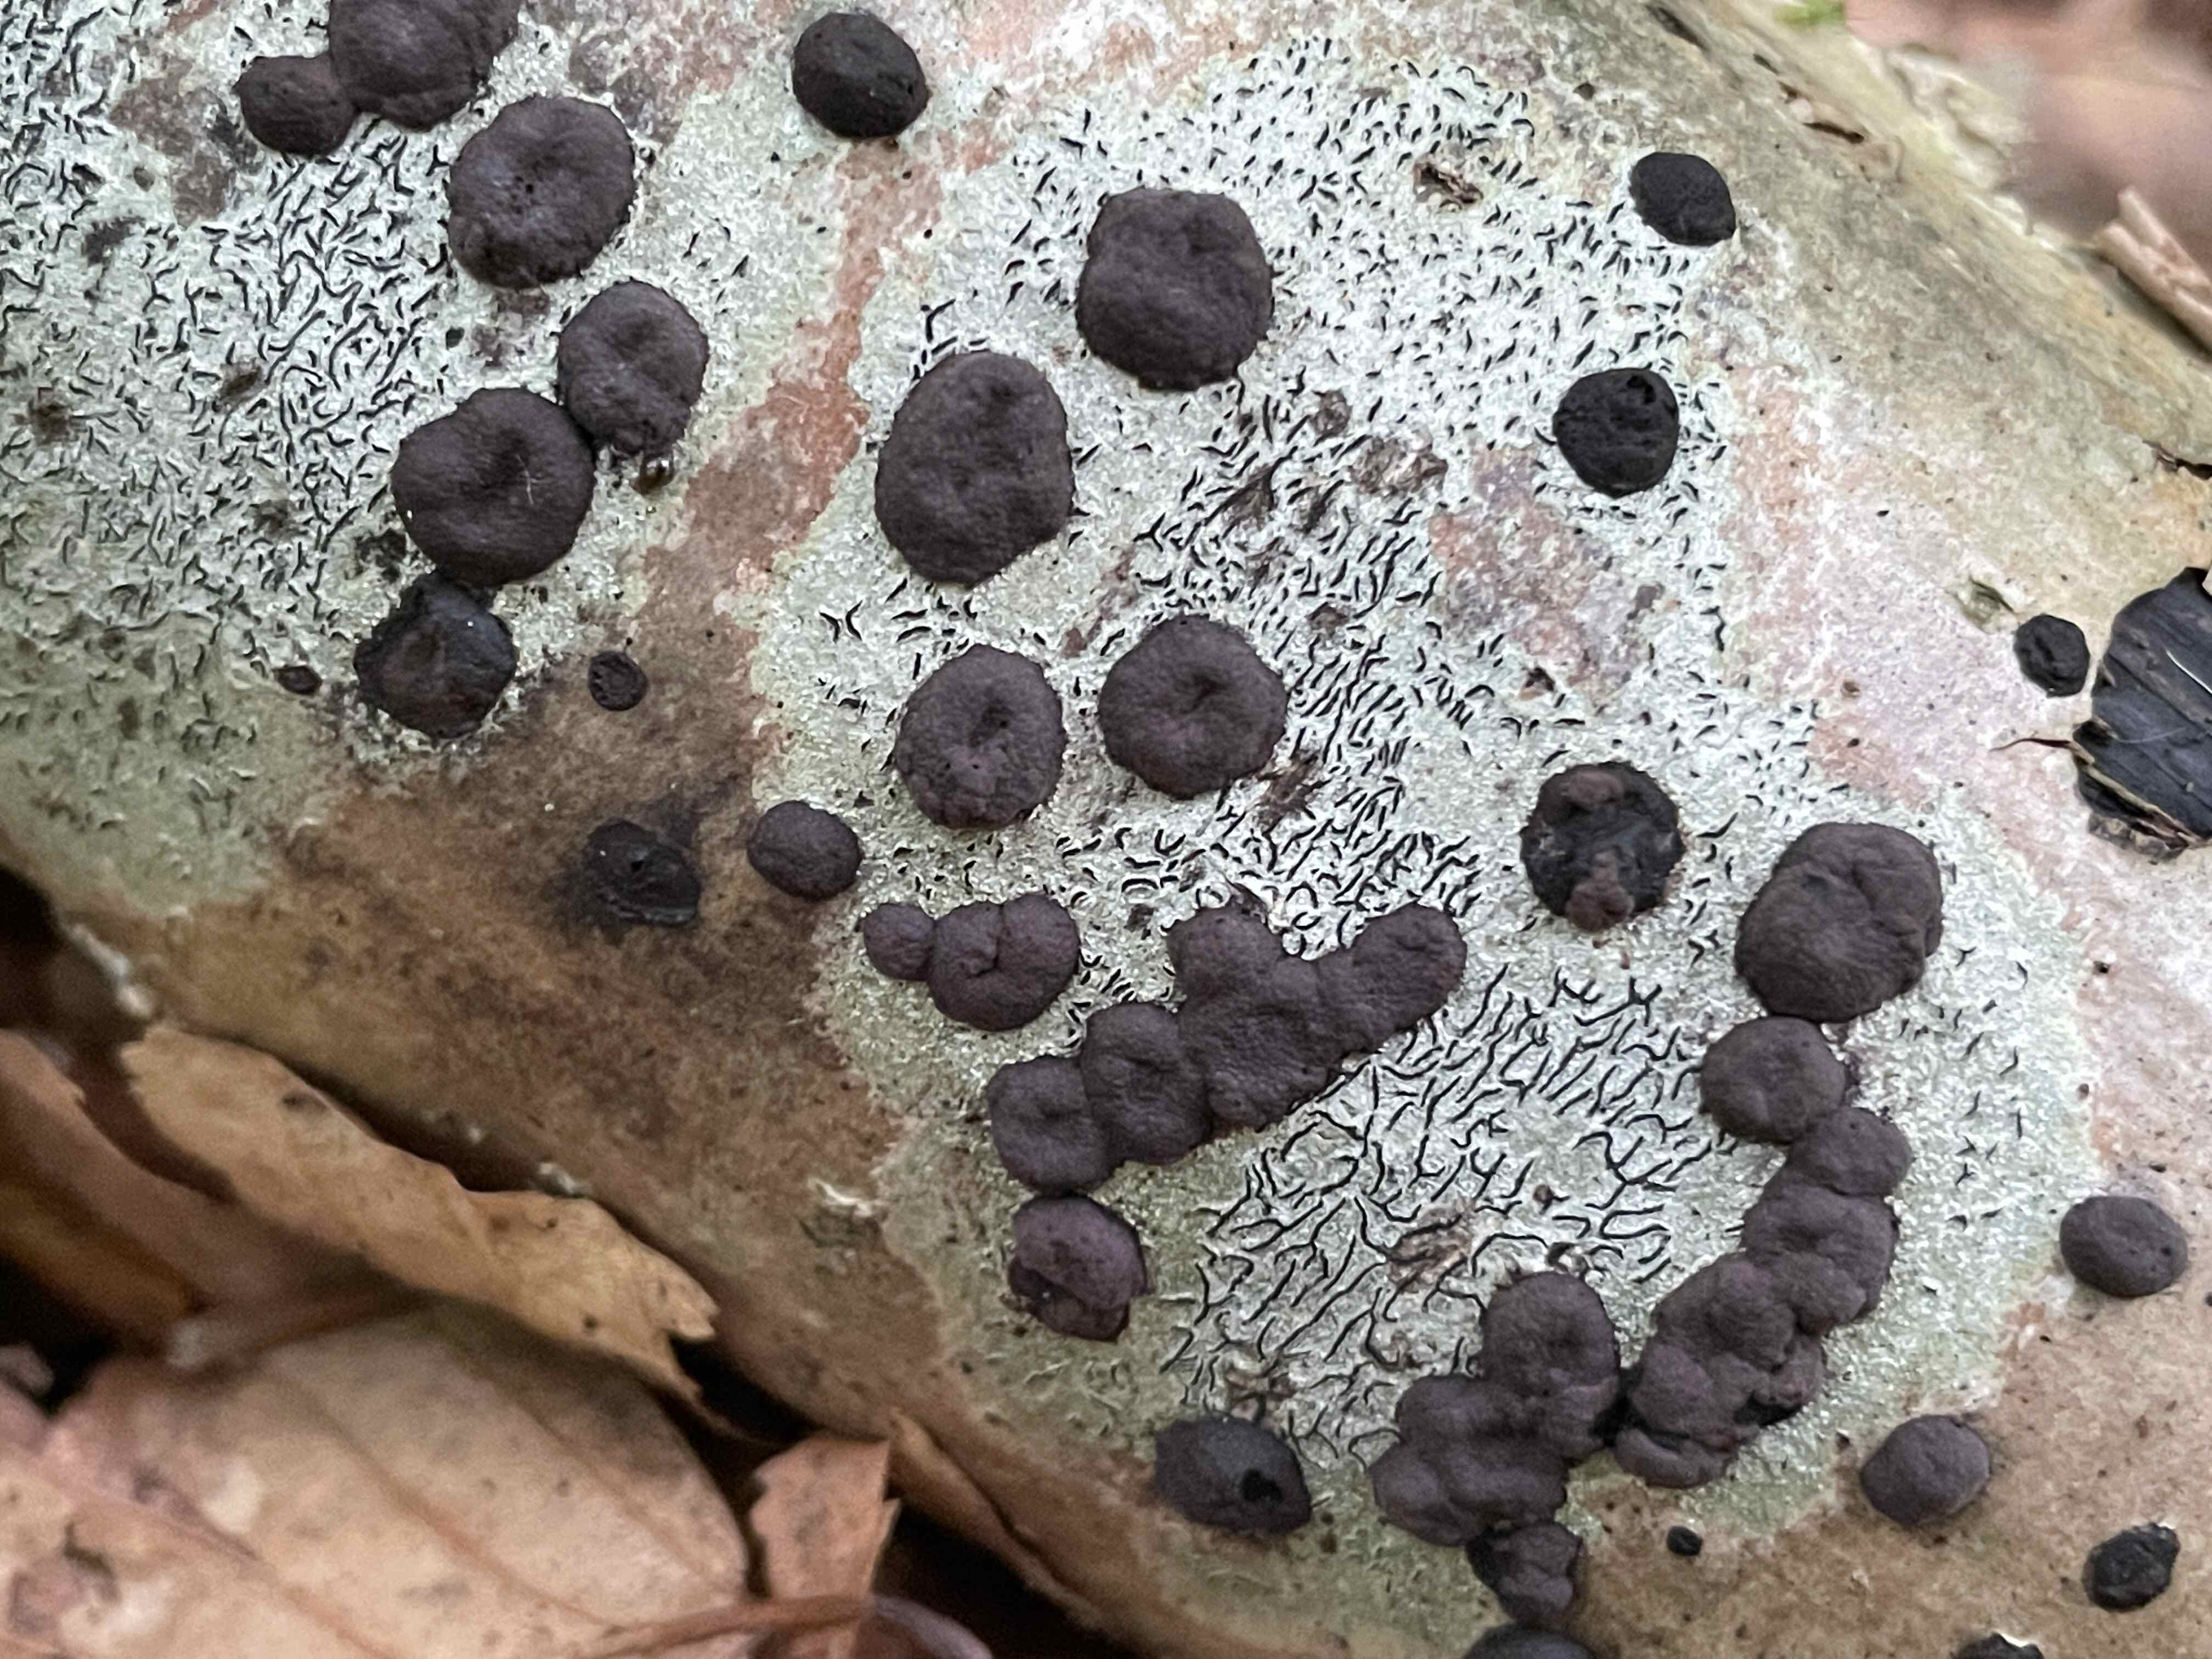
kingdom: Fungi
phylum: Ascomycota
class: Sordariomycetes
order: Xylariales
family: Hypoxylaceae
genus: Hypoxylon
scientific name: Hypoxylon fuscum
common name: kegleformet kulbær
